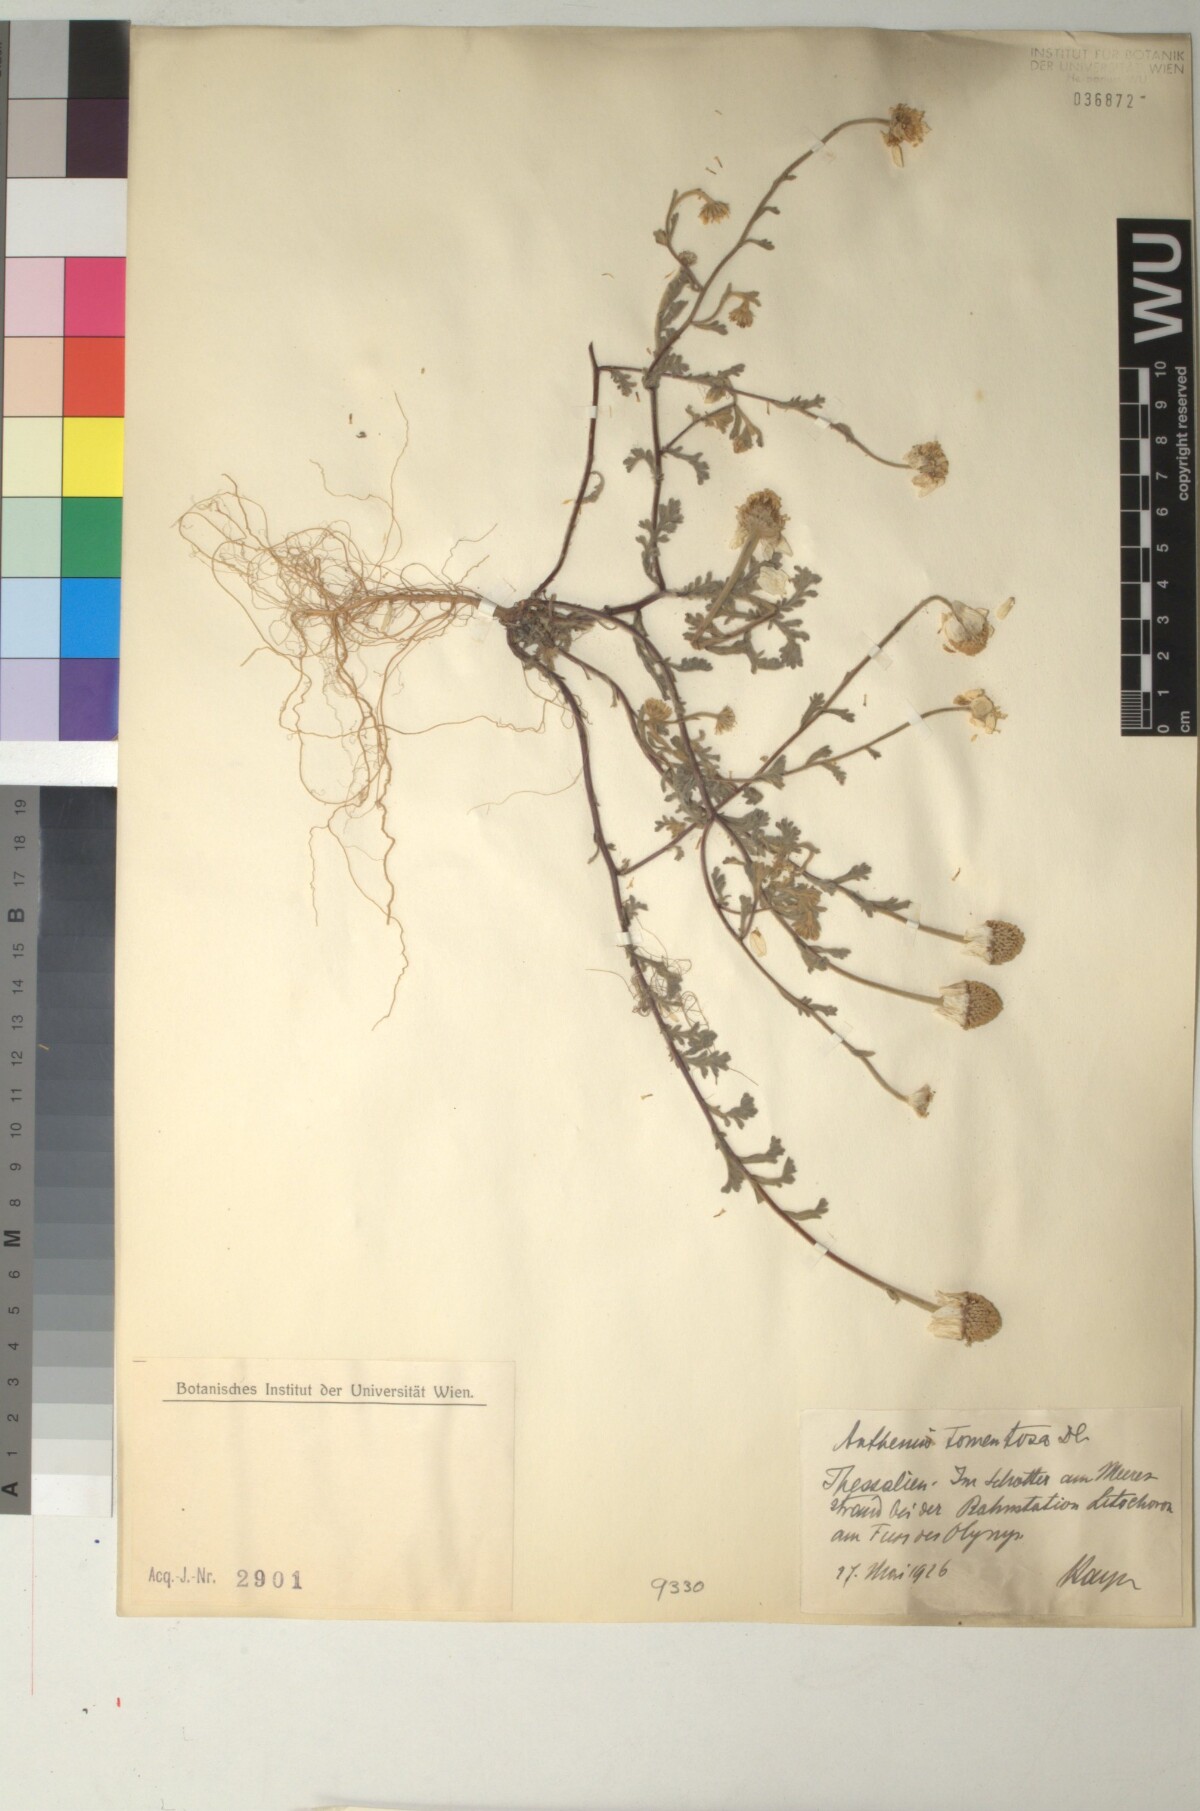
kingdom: Plantae
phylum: Tracheophyta
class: Magnoliopsida
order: Asterales
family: Asteraceae
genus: Anthemis
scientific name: Anthemis tomentosa
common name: Woolly chamomile
